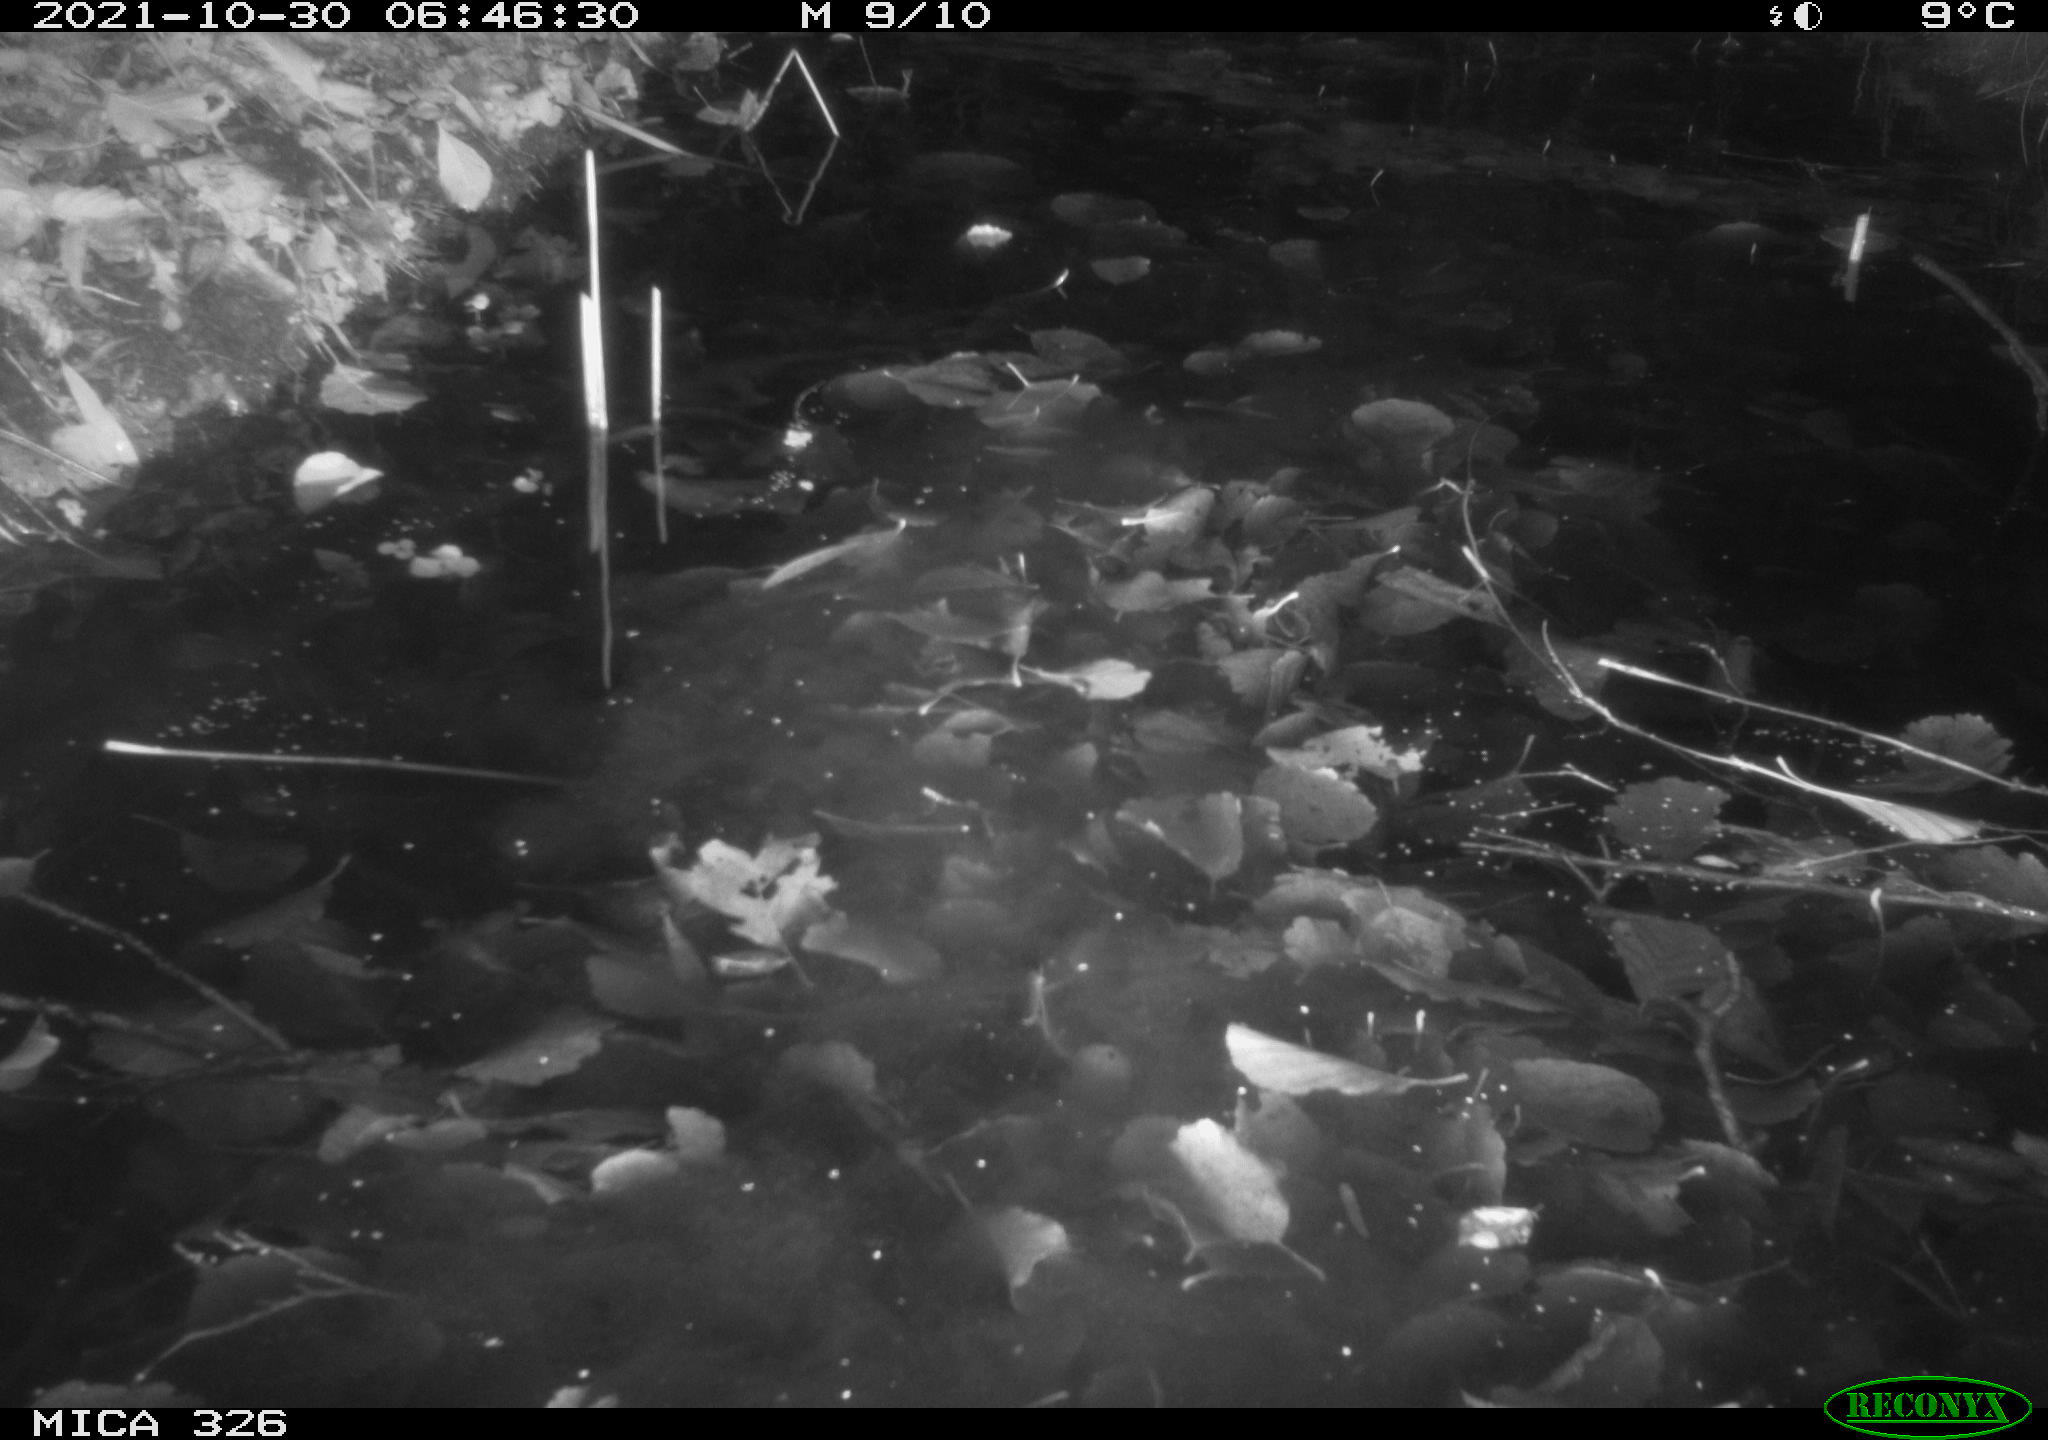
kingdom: Animalia
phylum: Chordata
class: Mammalia
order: Rodentia
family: Myocastoridae
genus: Myocastor
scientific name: Myocastor coypus
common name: Coypu
